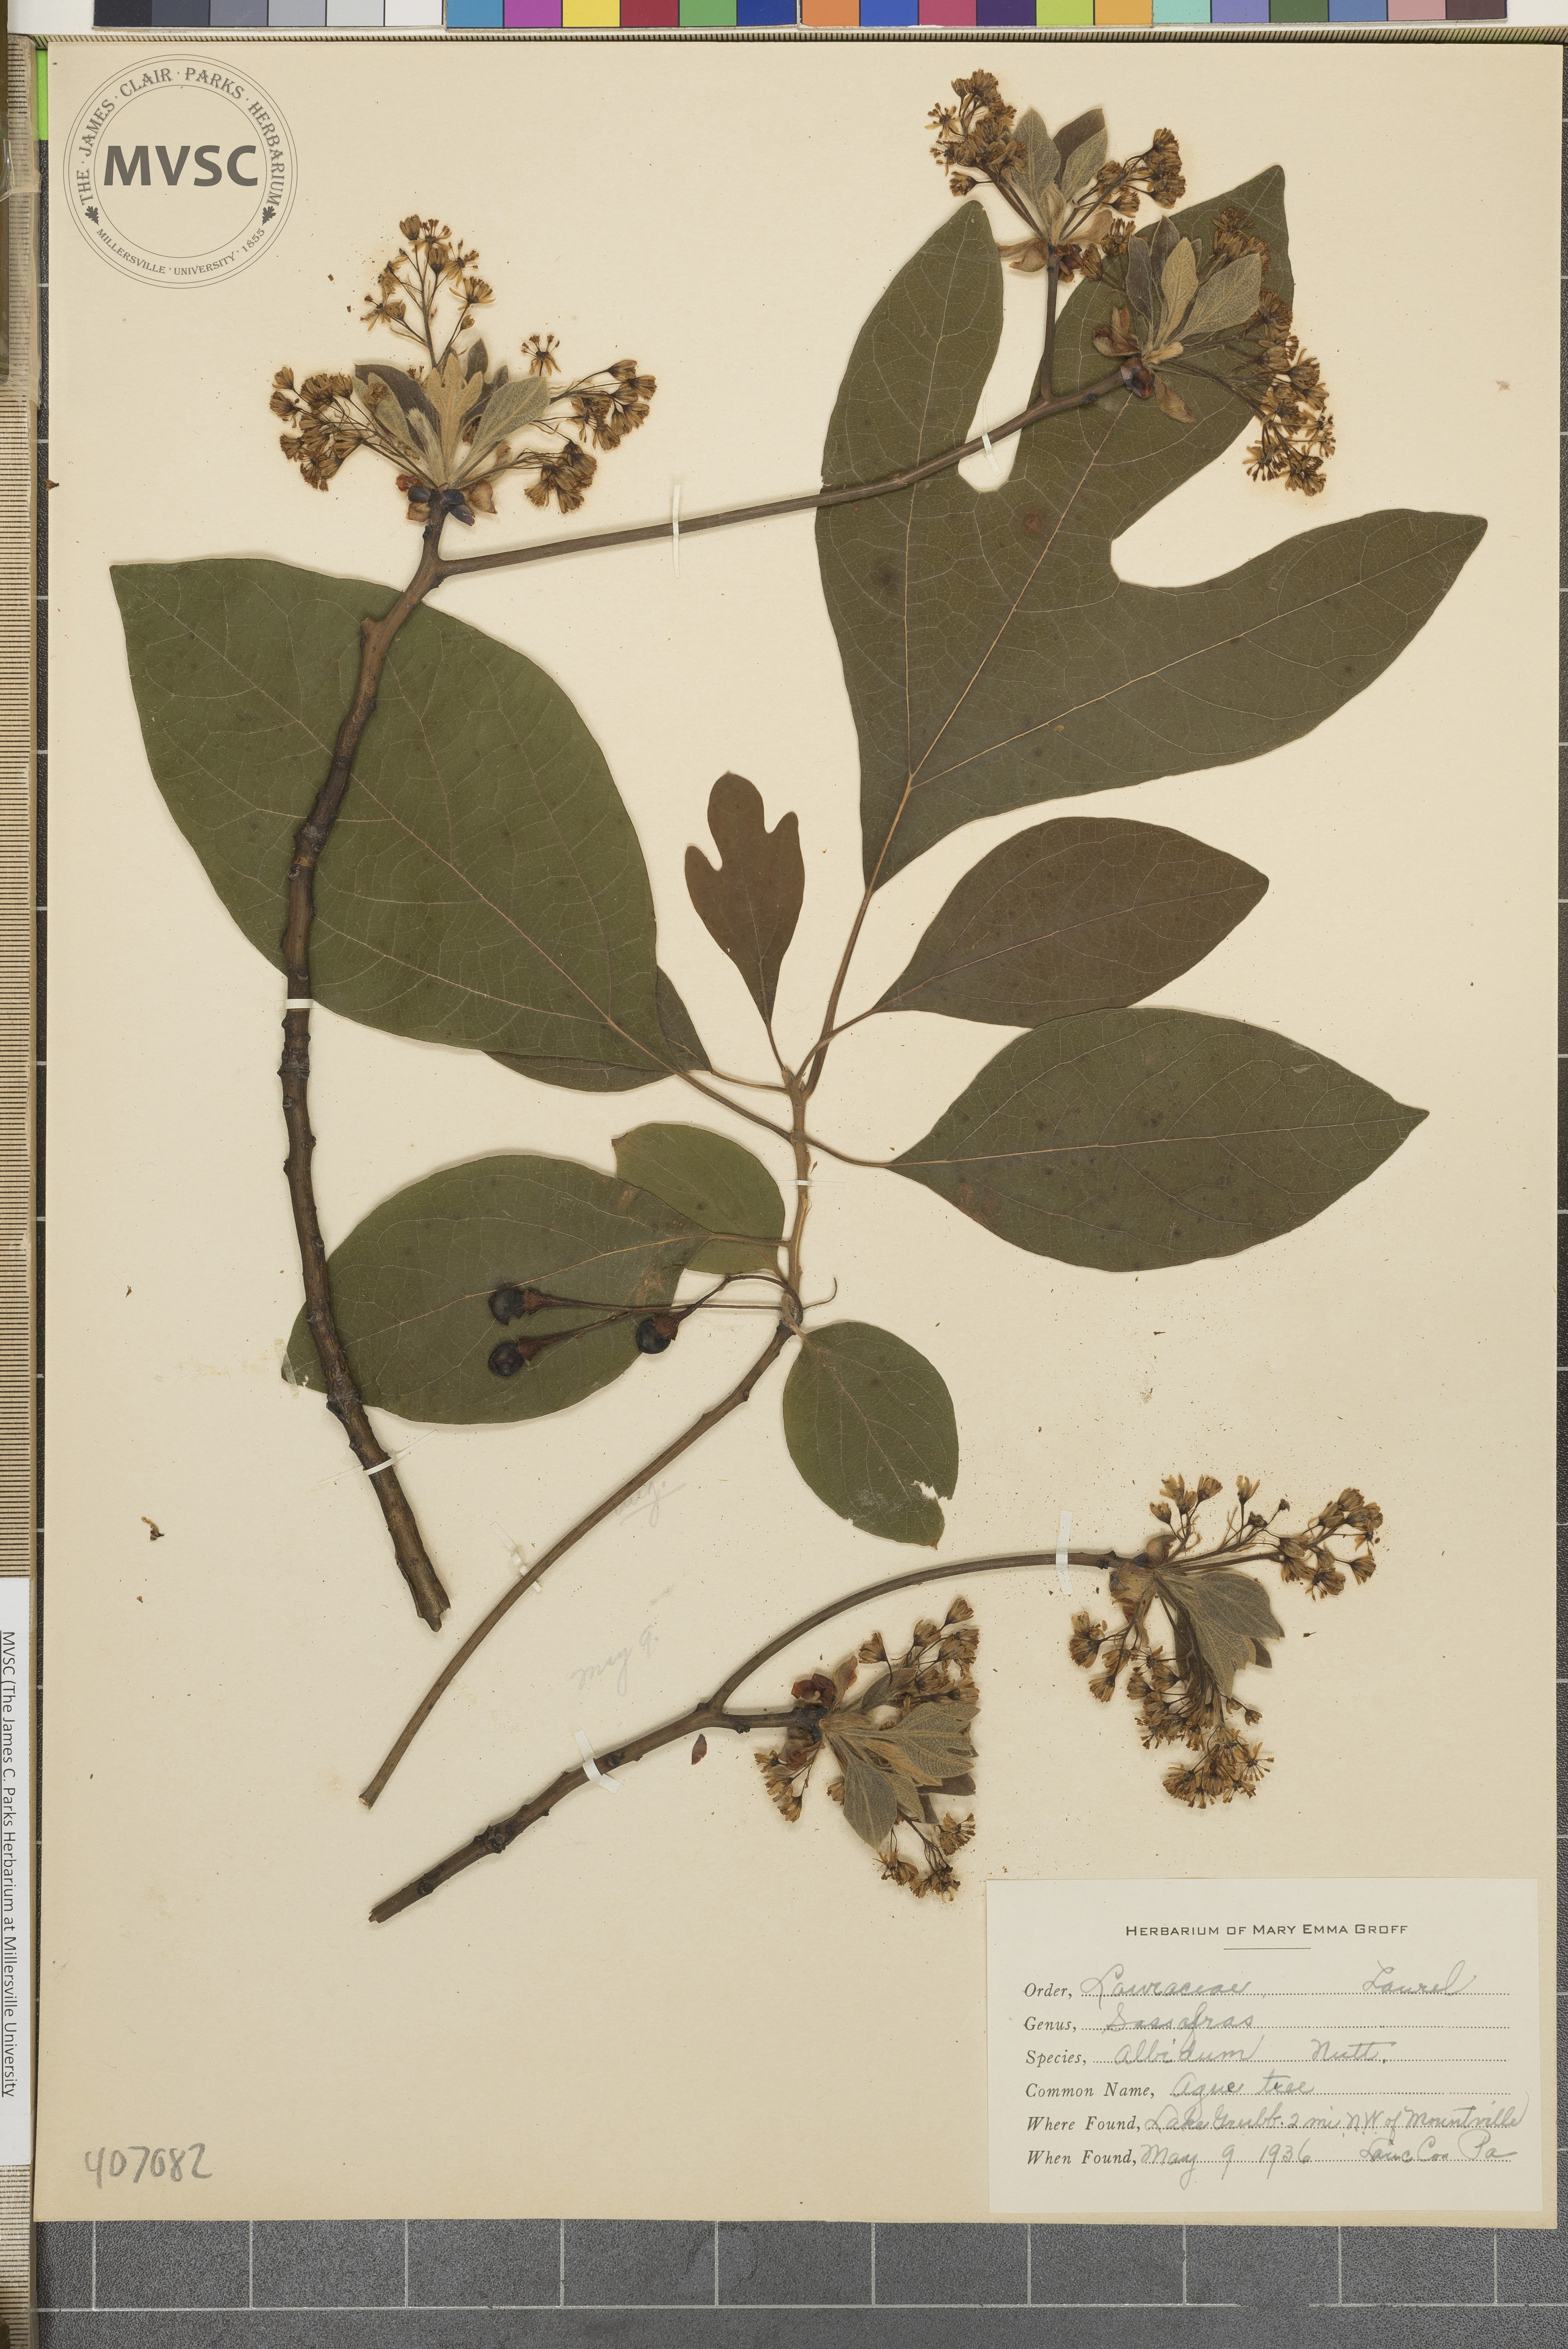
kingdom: Plantae
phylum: Tracheophyta
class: Magnoliopsida
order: Laurales
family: Lauraceae
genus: Sassafras
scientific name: Sassafras albidum
